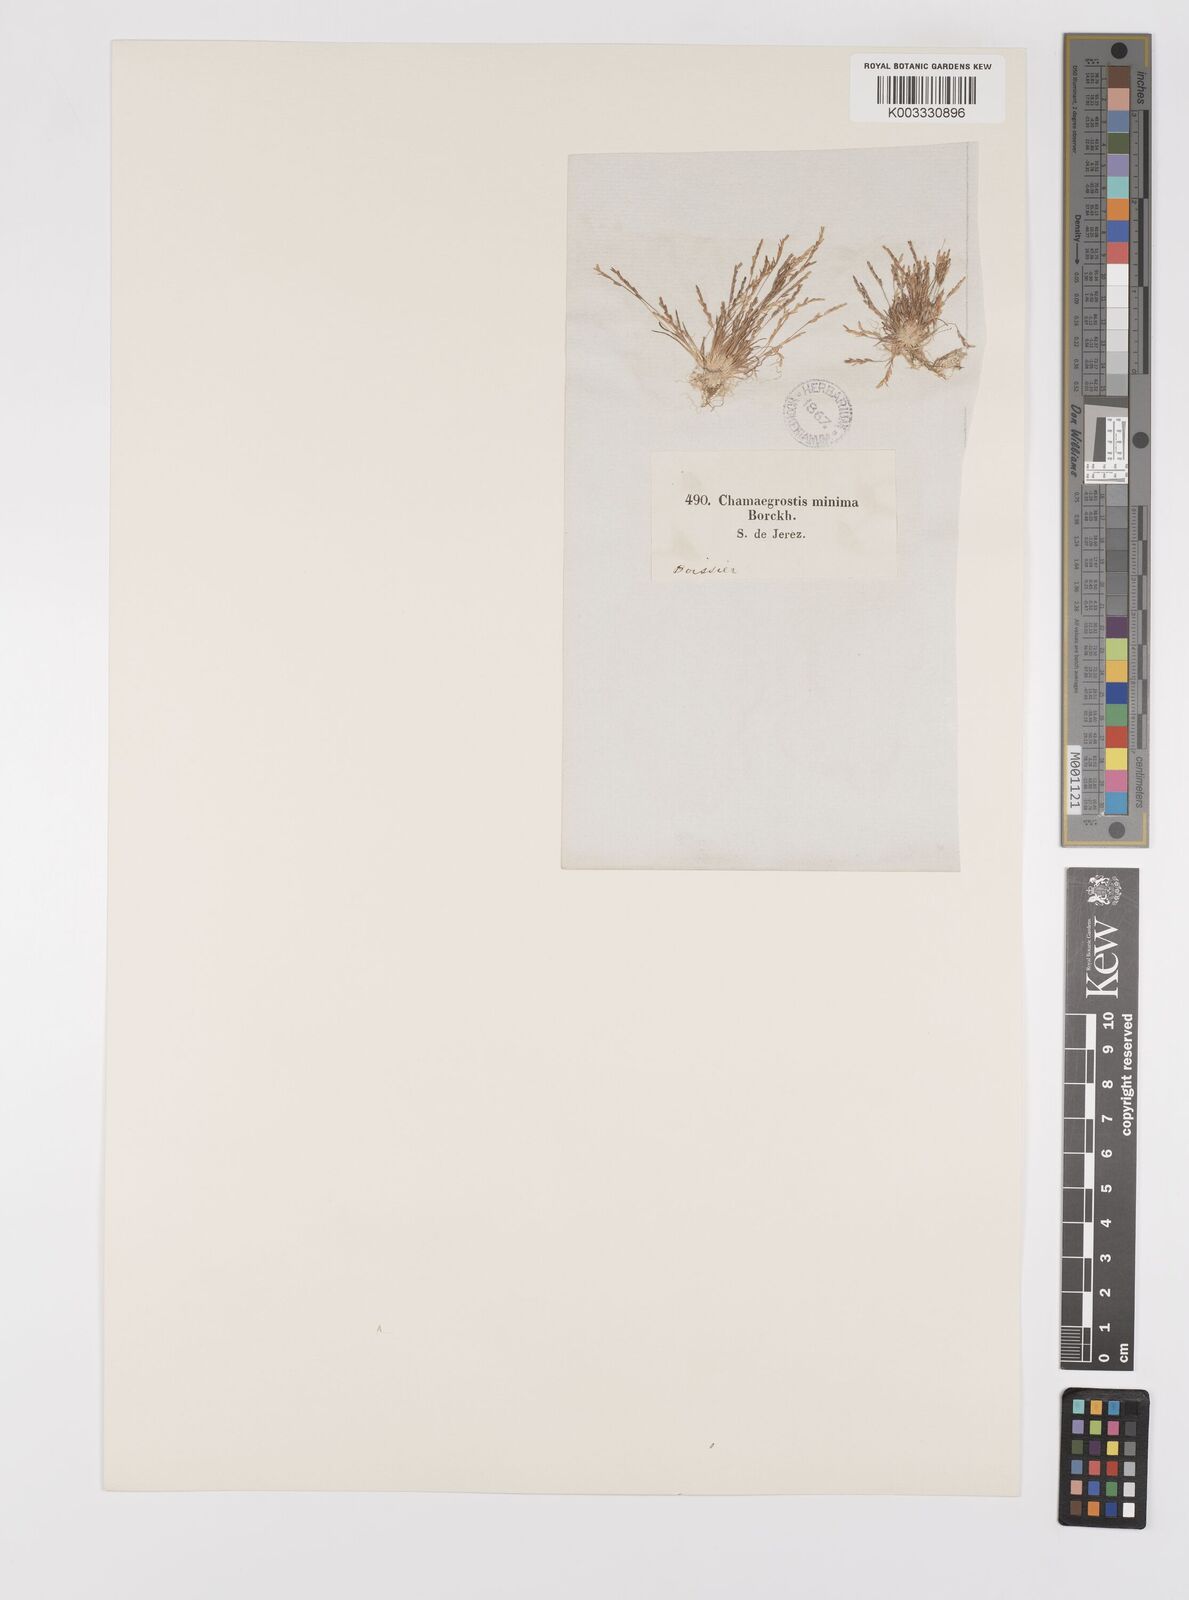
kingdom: Plantae
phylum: Tracheophyta
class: Liliopsida
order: Poales
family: Poaceae
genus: Mibora
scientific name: Mibora minima
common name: Early sand-grass
